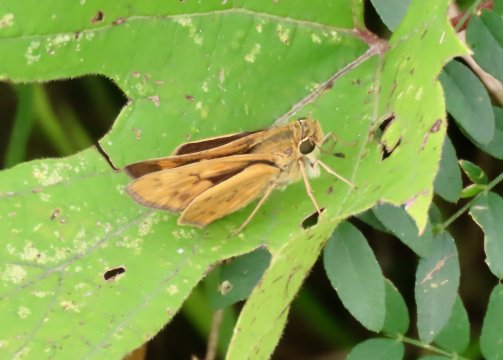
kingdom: Animalia
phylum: Arthropoda
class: Insecta
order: Lepidoptera
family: Hesperiidae
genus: Hylephila
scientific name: Hylephila phyleus
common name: Fiery Skipper
